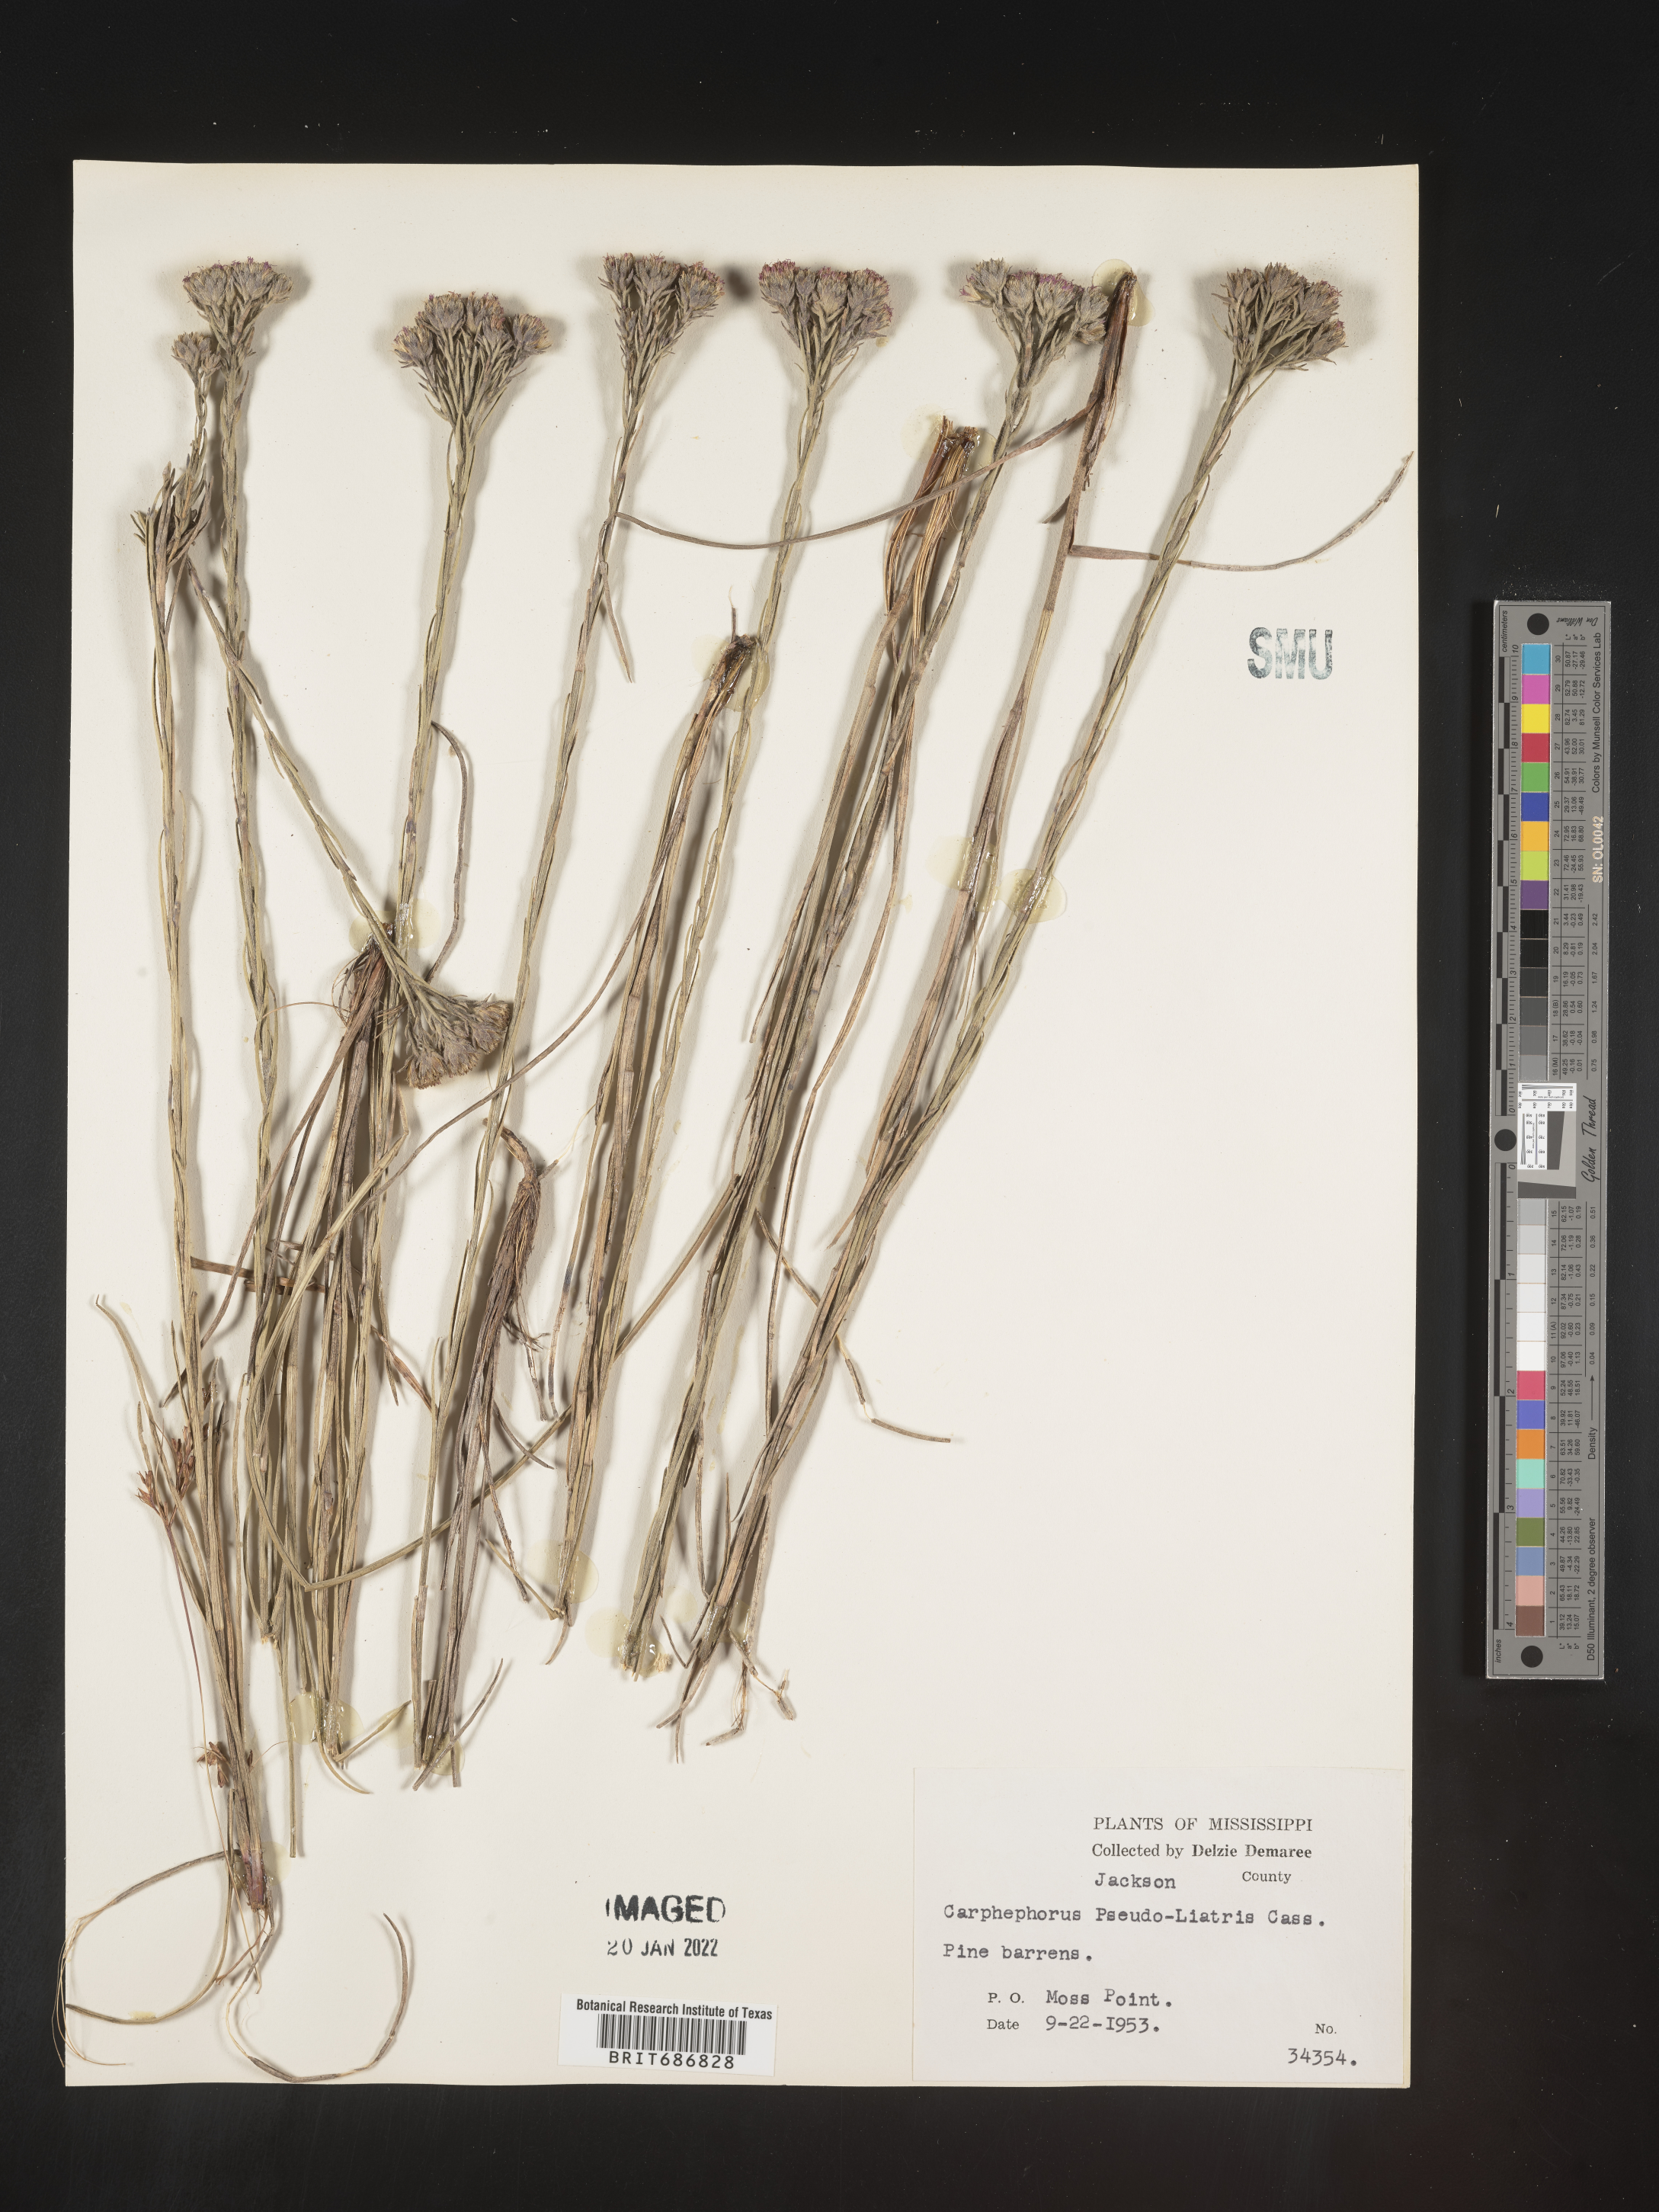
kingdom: Plantae
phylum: Tracheophyta
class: Magnoliopsida
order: Asterales
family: Asteraceae
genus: Carphephorus
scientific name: Carphephorus pseudoliatris
